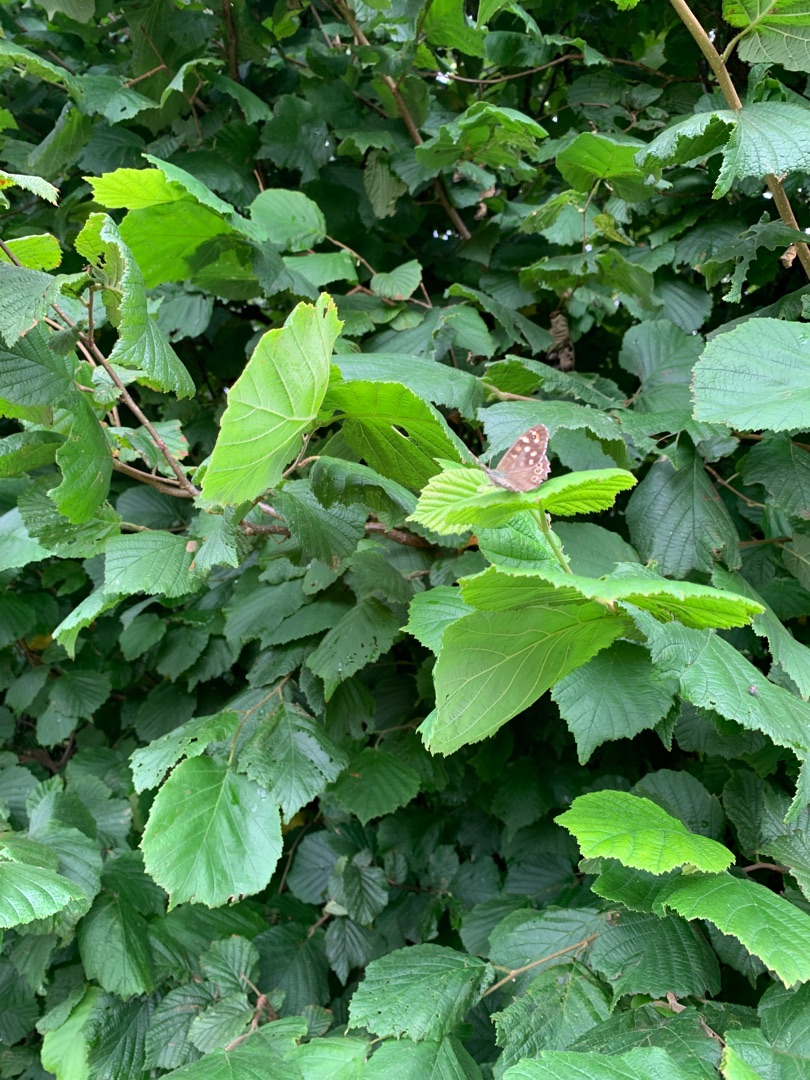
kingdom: Animalia
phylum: Arthropoda
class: Insecta
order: Lepidoptera
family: Nymphalidae
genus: Pararge
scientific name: Pararge aegeria
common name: Skovrandøje
